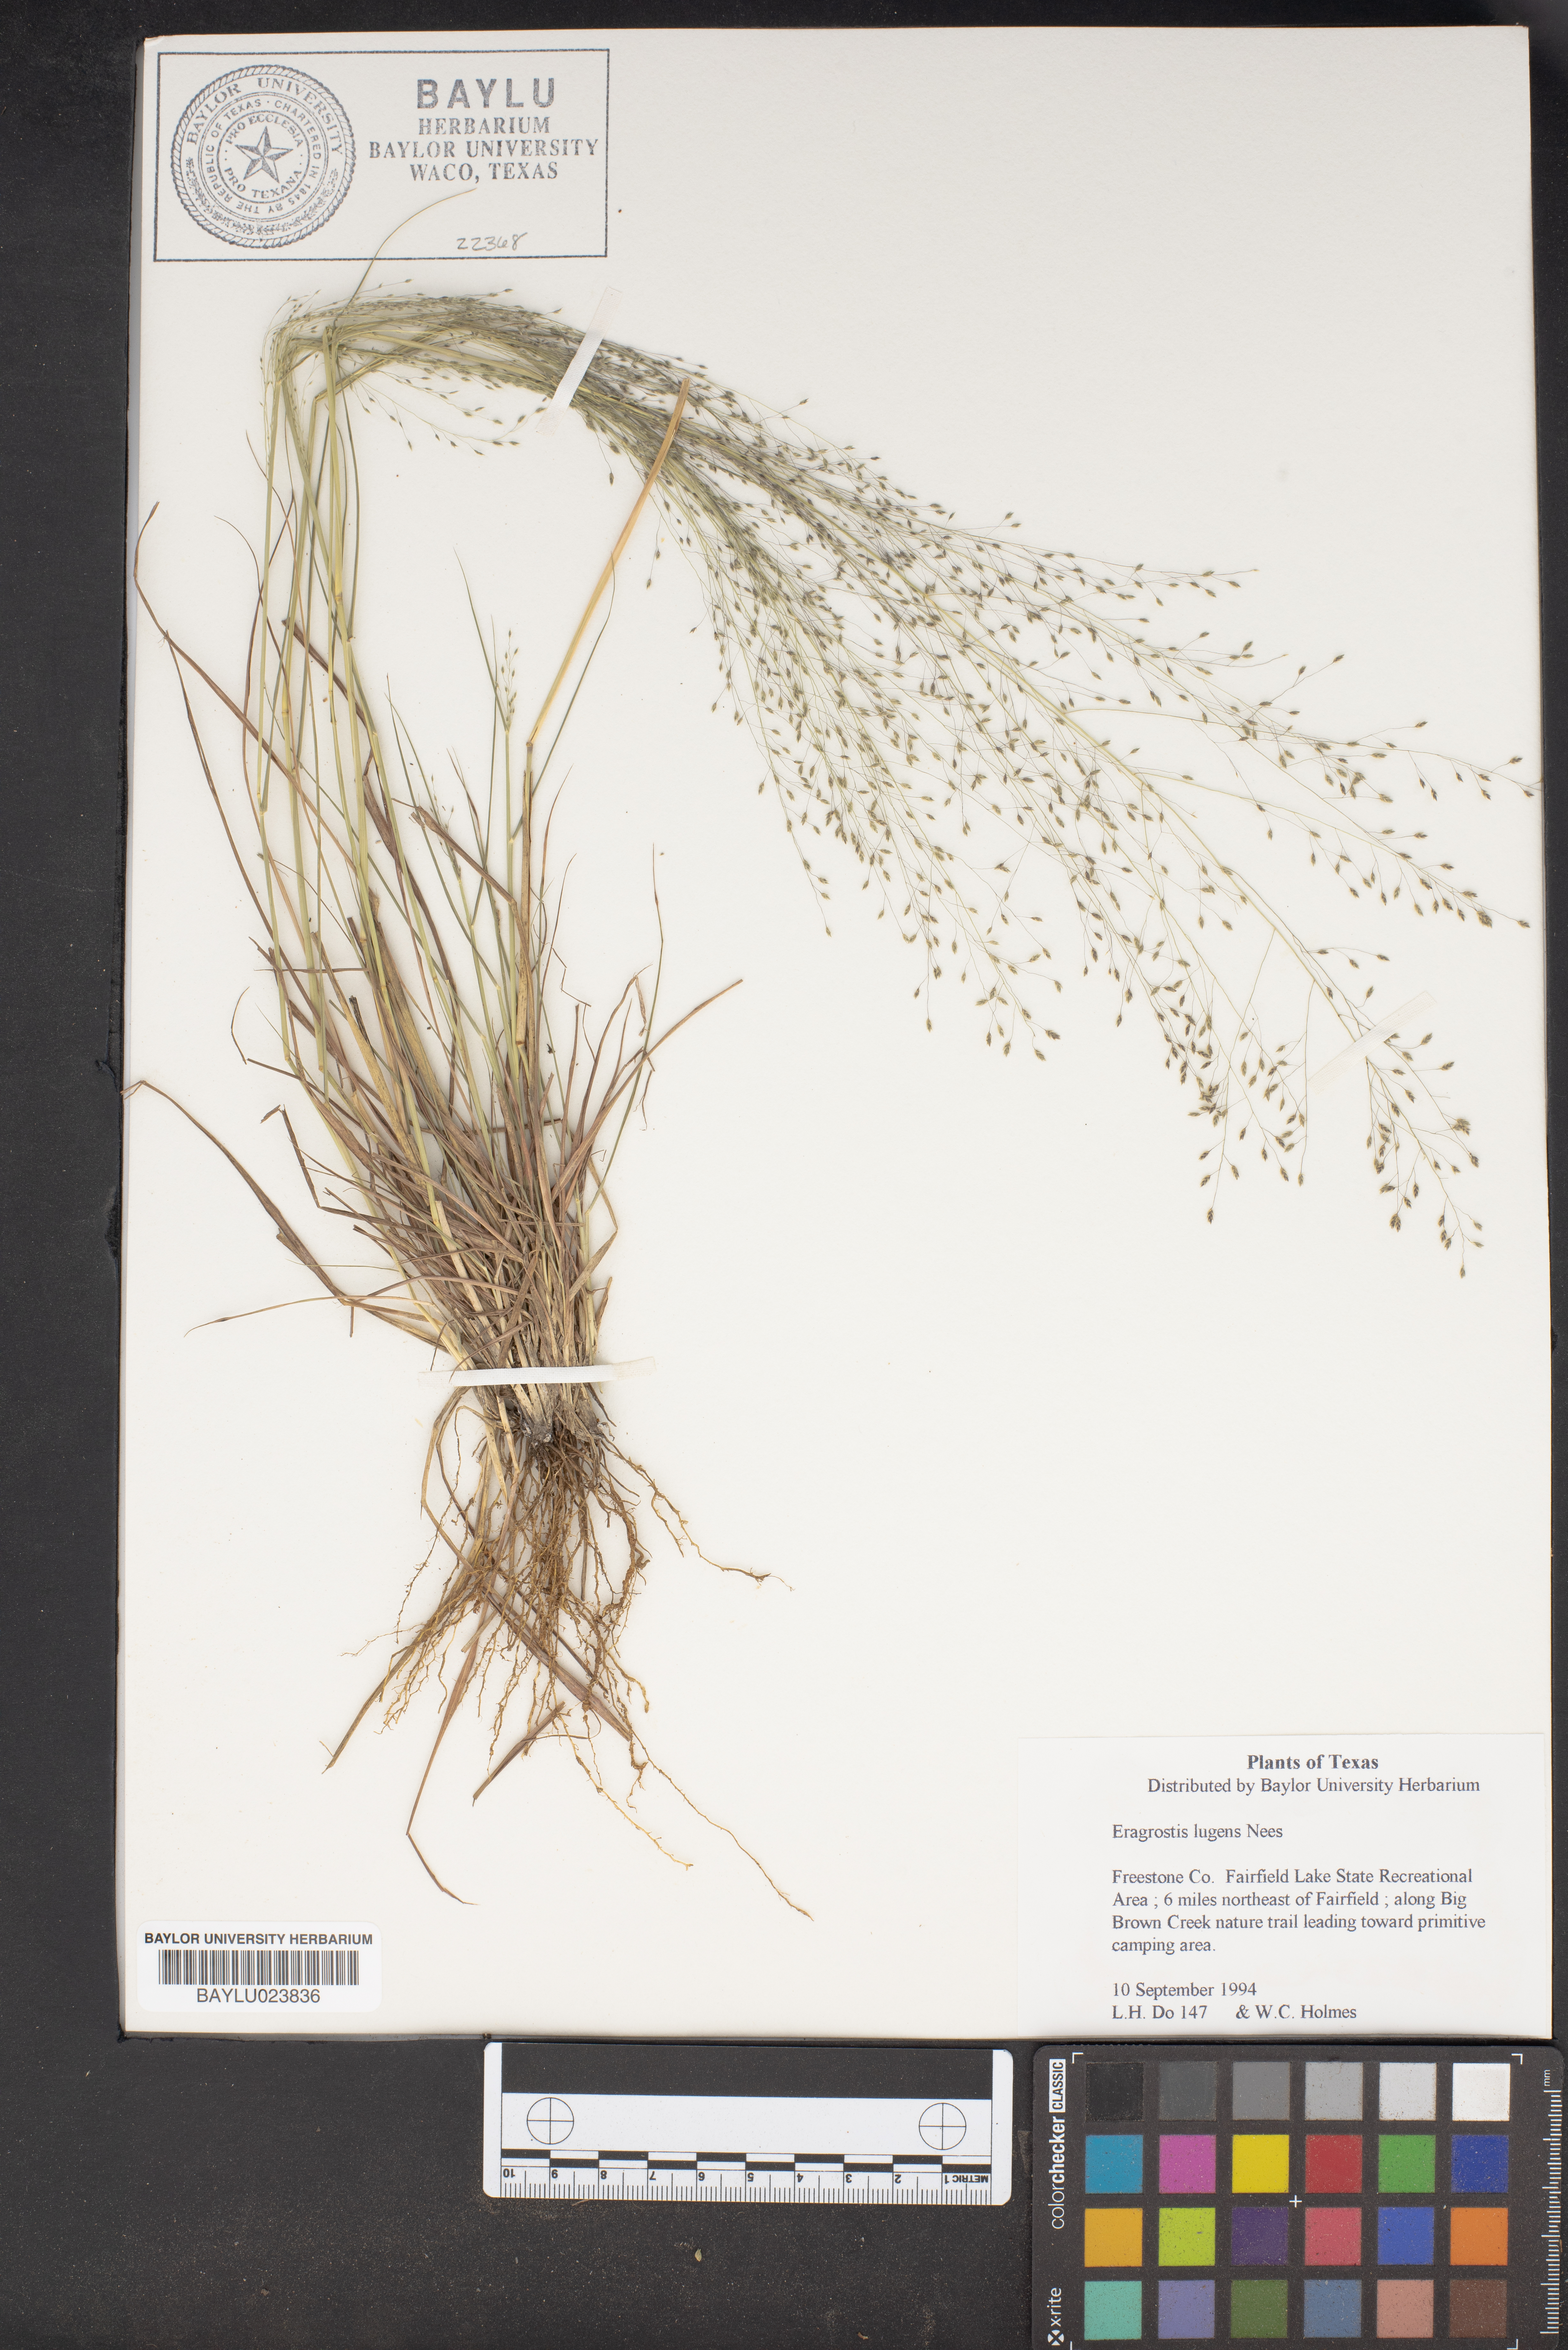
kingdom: Plantae
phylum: Tracheophyta
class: Liliopsida
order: Poales
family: Poaceae
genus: Eragrostis
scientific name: Eragrostis capillaris
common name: Hair-like lovegrass
